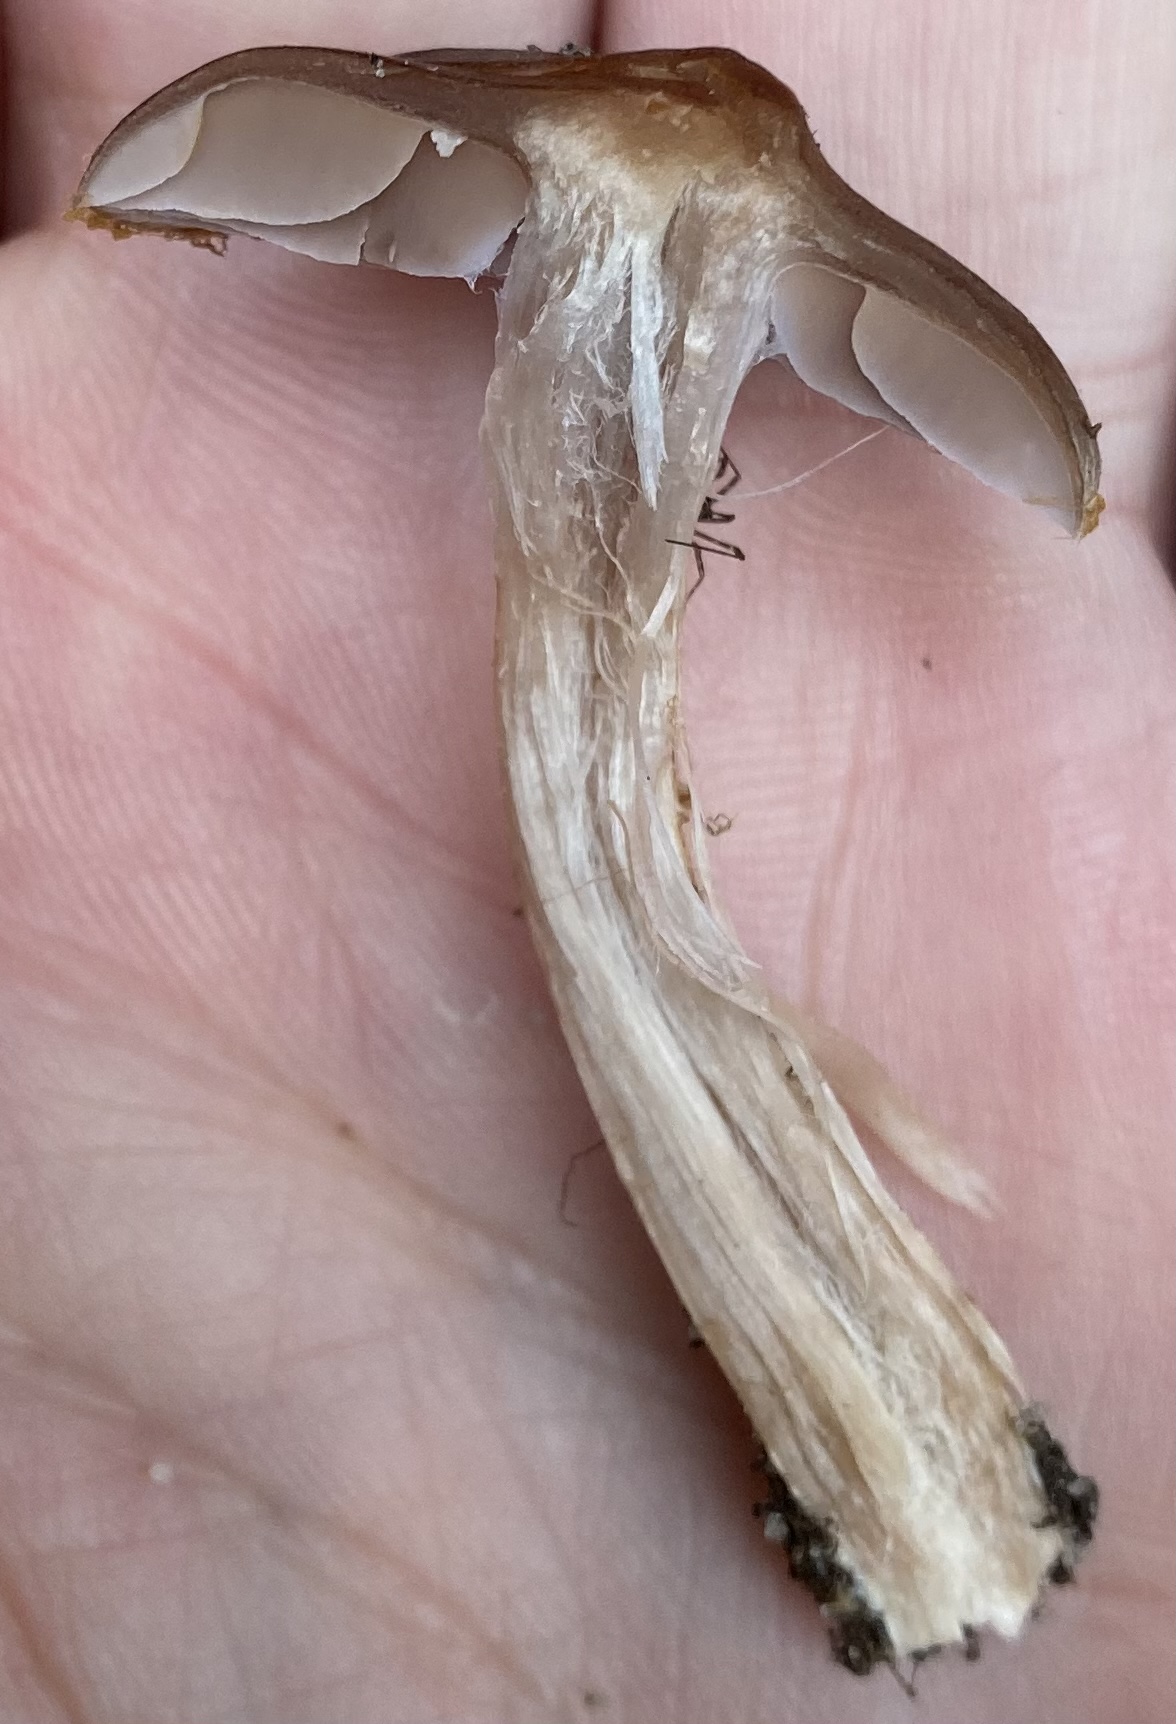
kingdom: Fungi
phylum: Basidiomycota
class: Agaricomycetes
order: Agaricales
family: Cortinariaceae
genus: Cortinarius
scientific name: Cortinarius
